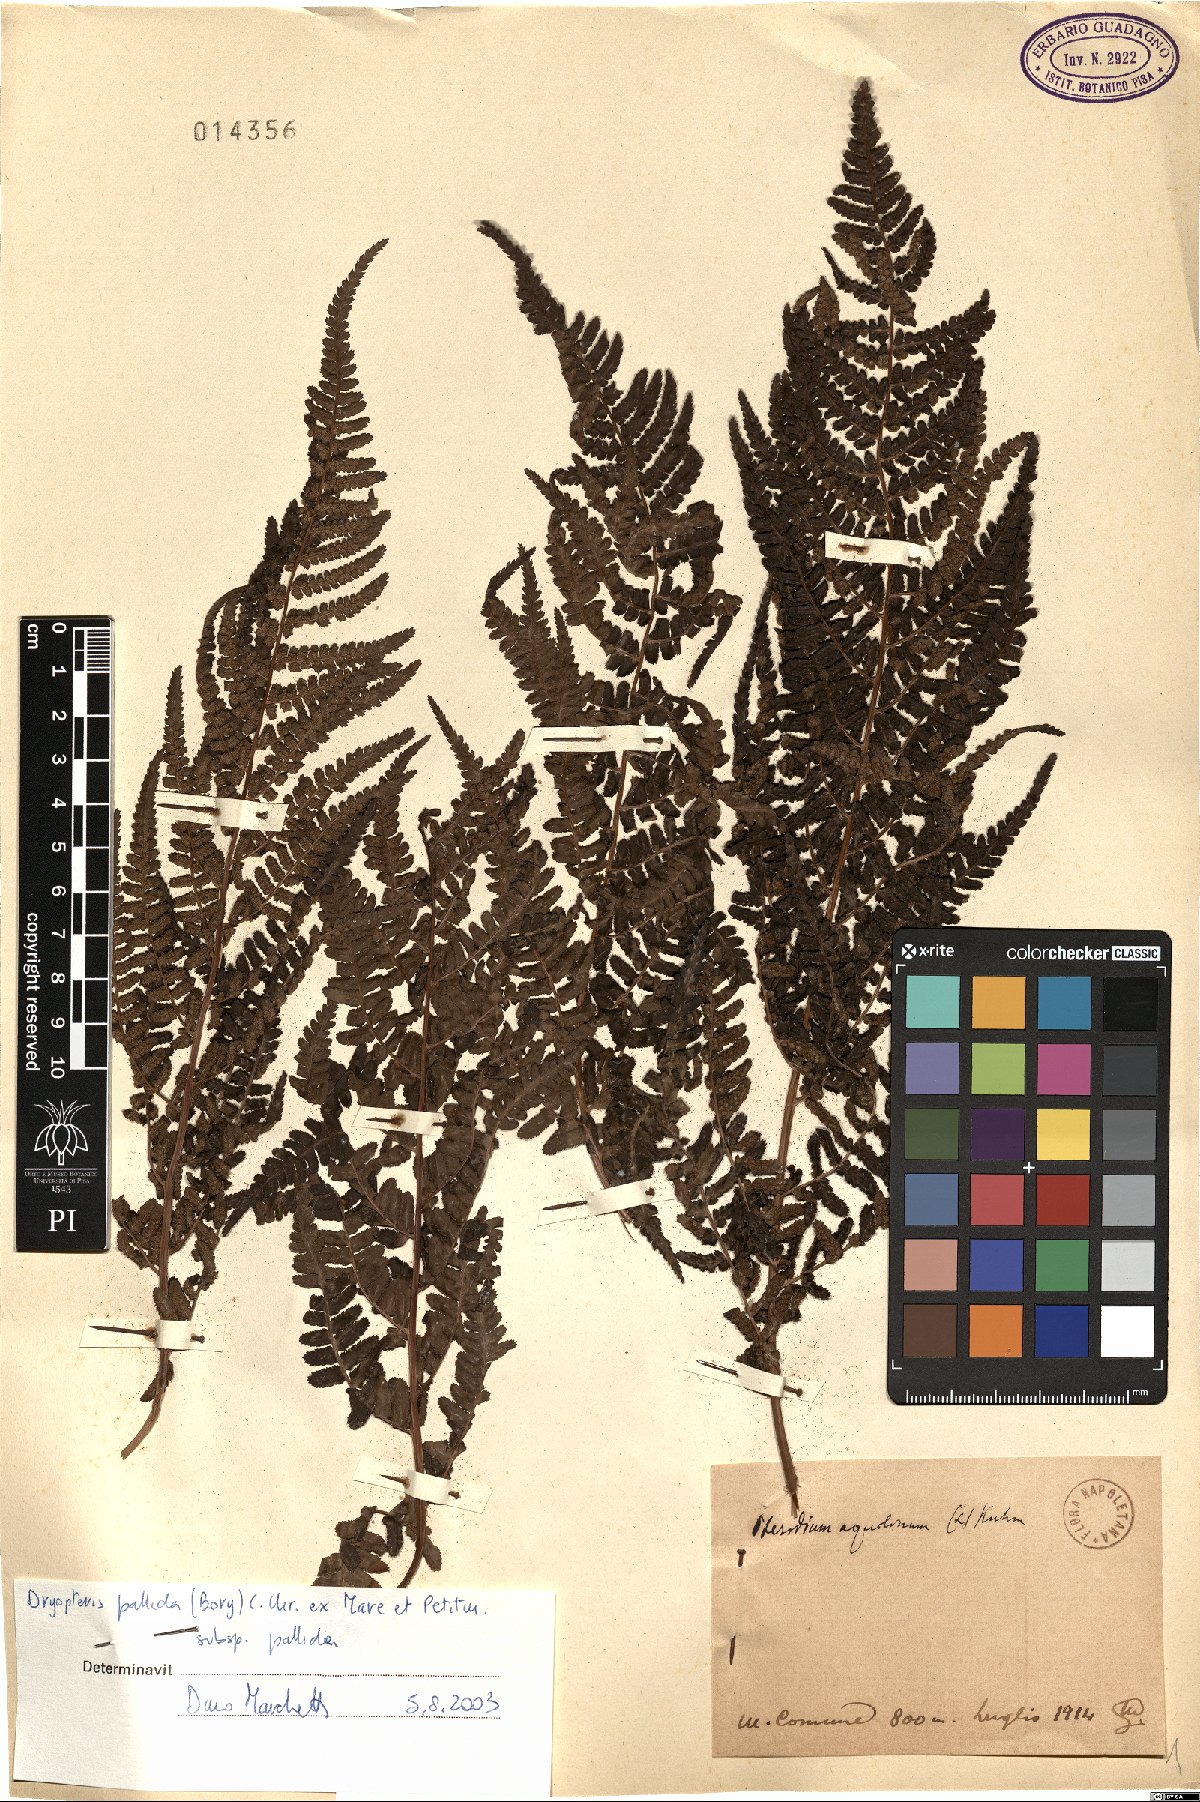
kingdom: Plantae
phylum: Tracheophyta
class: Polypodiopsida
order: Polypodiales
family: Dryopteridaceae
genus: Dryopteris
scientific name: Dryopteris pallida
